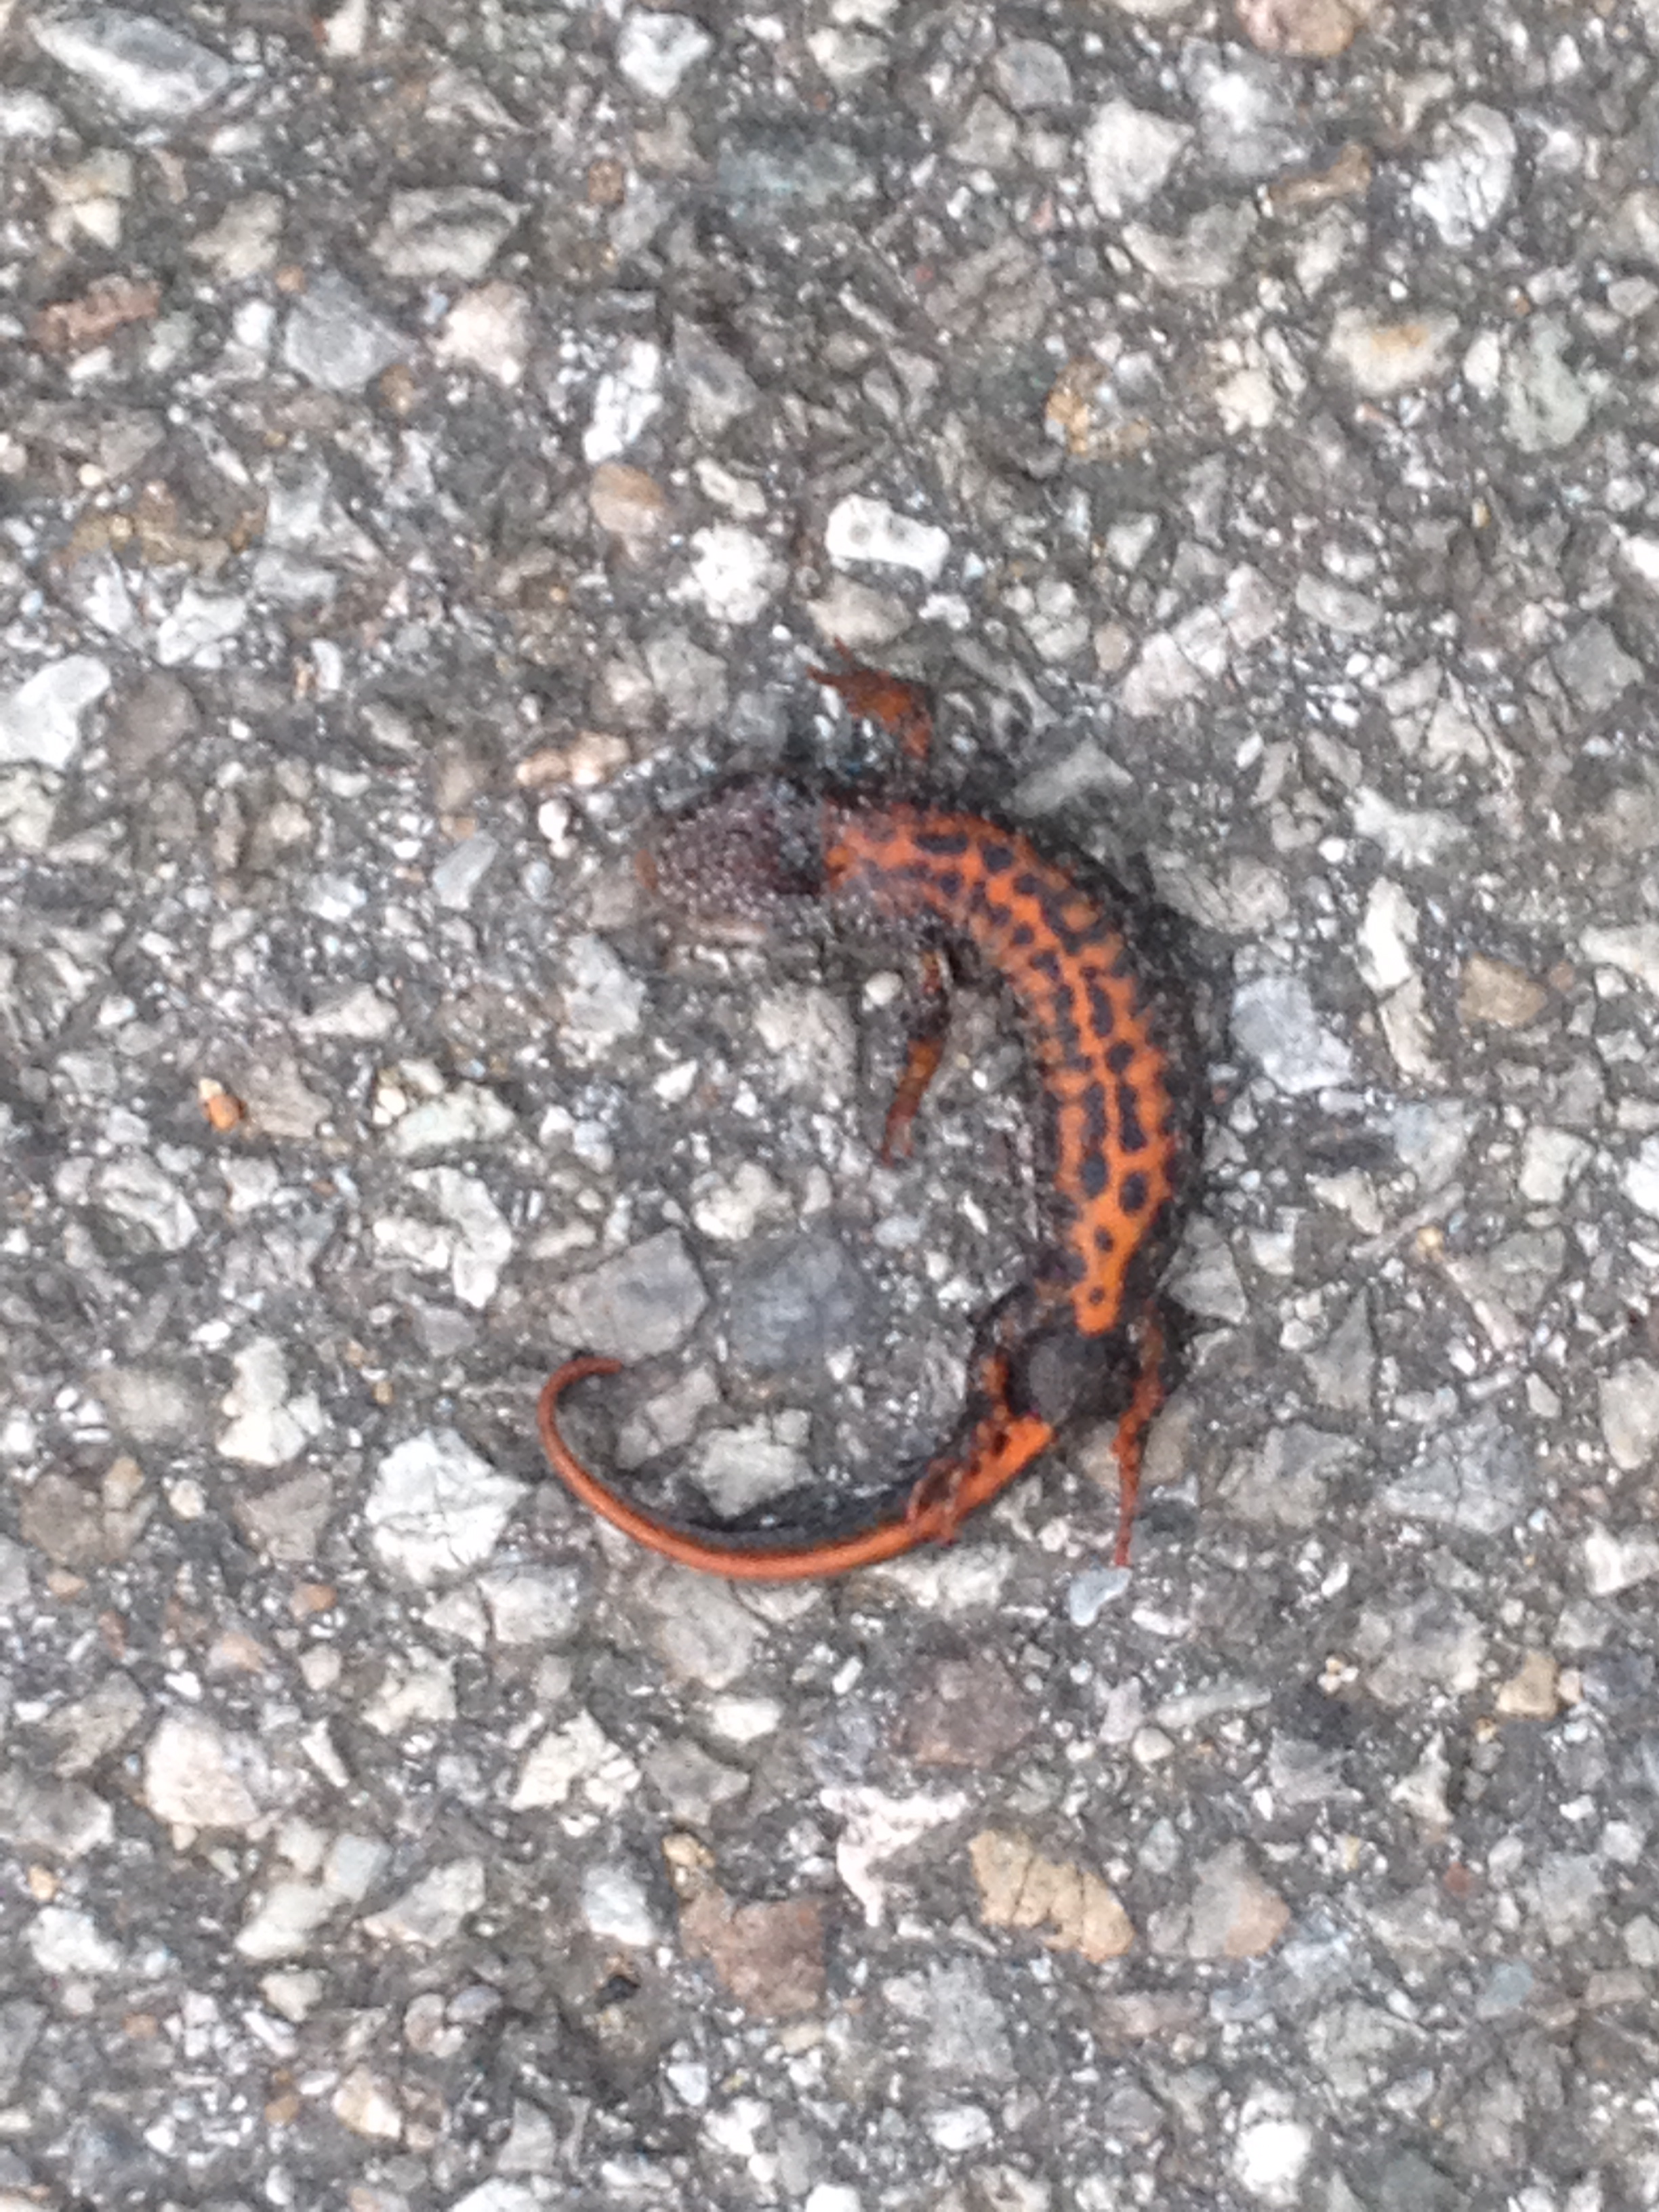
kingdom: Animalia
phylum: Chordata
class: Amphibia
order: Caudata
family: Salamandridae
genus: Triturus
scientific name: Triturus dobrogicus
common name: Danube crested newt
